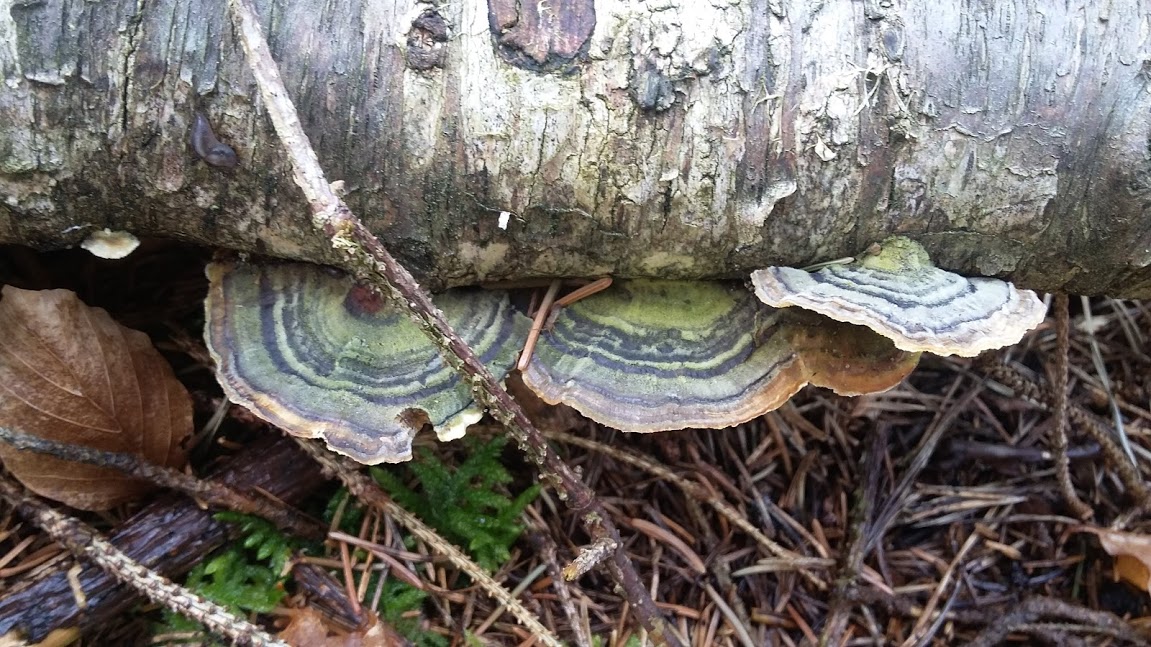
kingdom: Fungi
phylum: Basidiomycota
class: Agaricomycetes
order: Polyporales
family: Polyporaceae
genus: Trametes
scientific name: Trametes versicolor
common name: broget læderporesvamp
